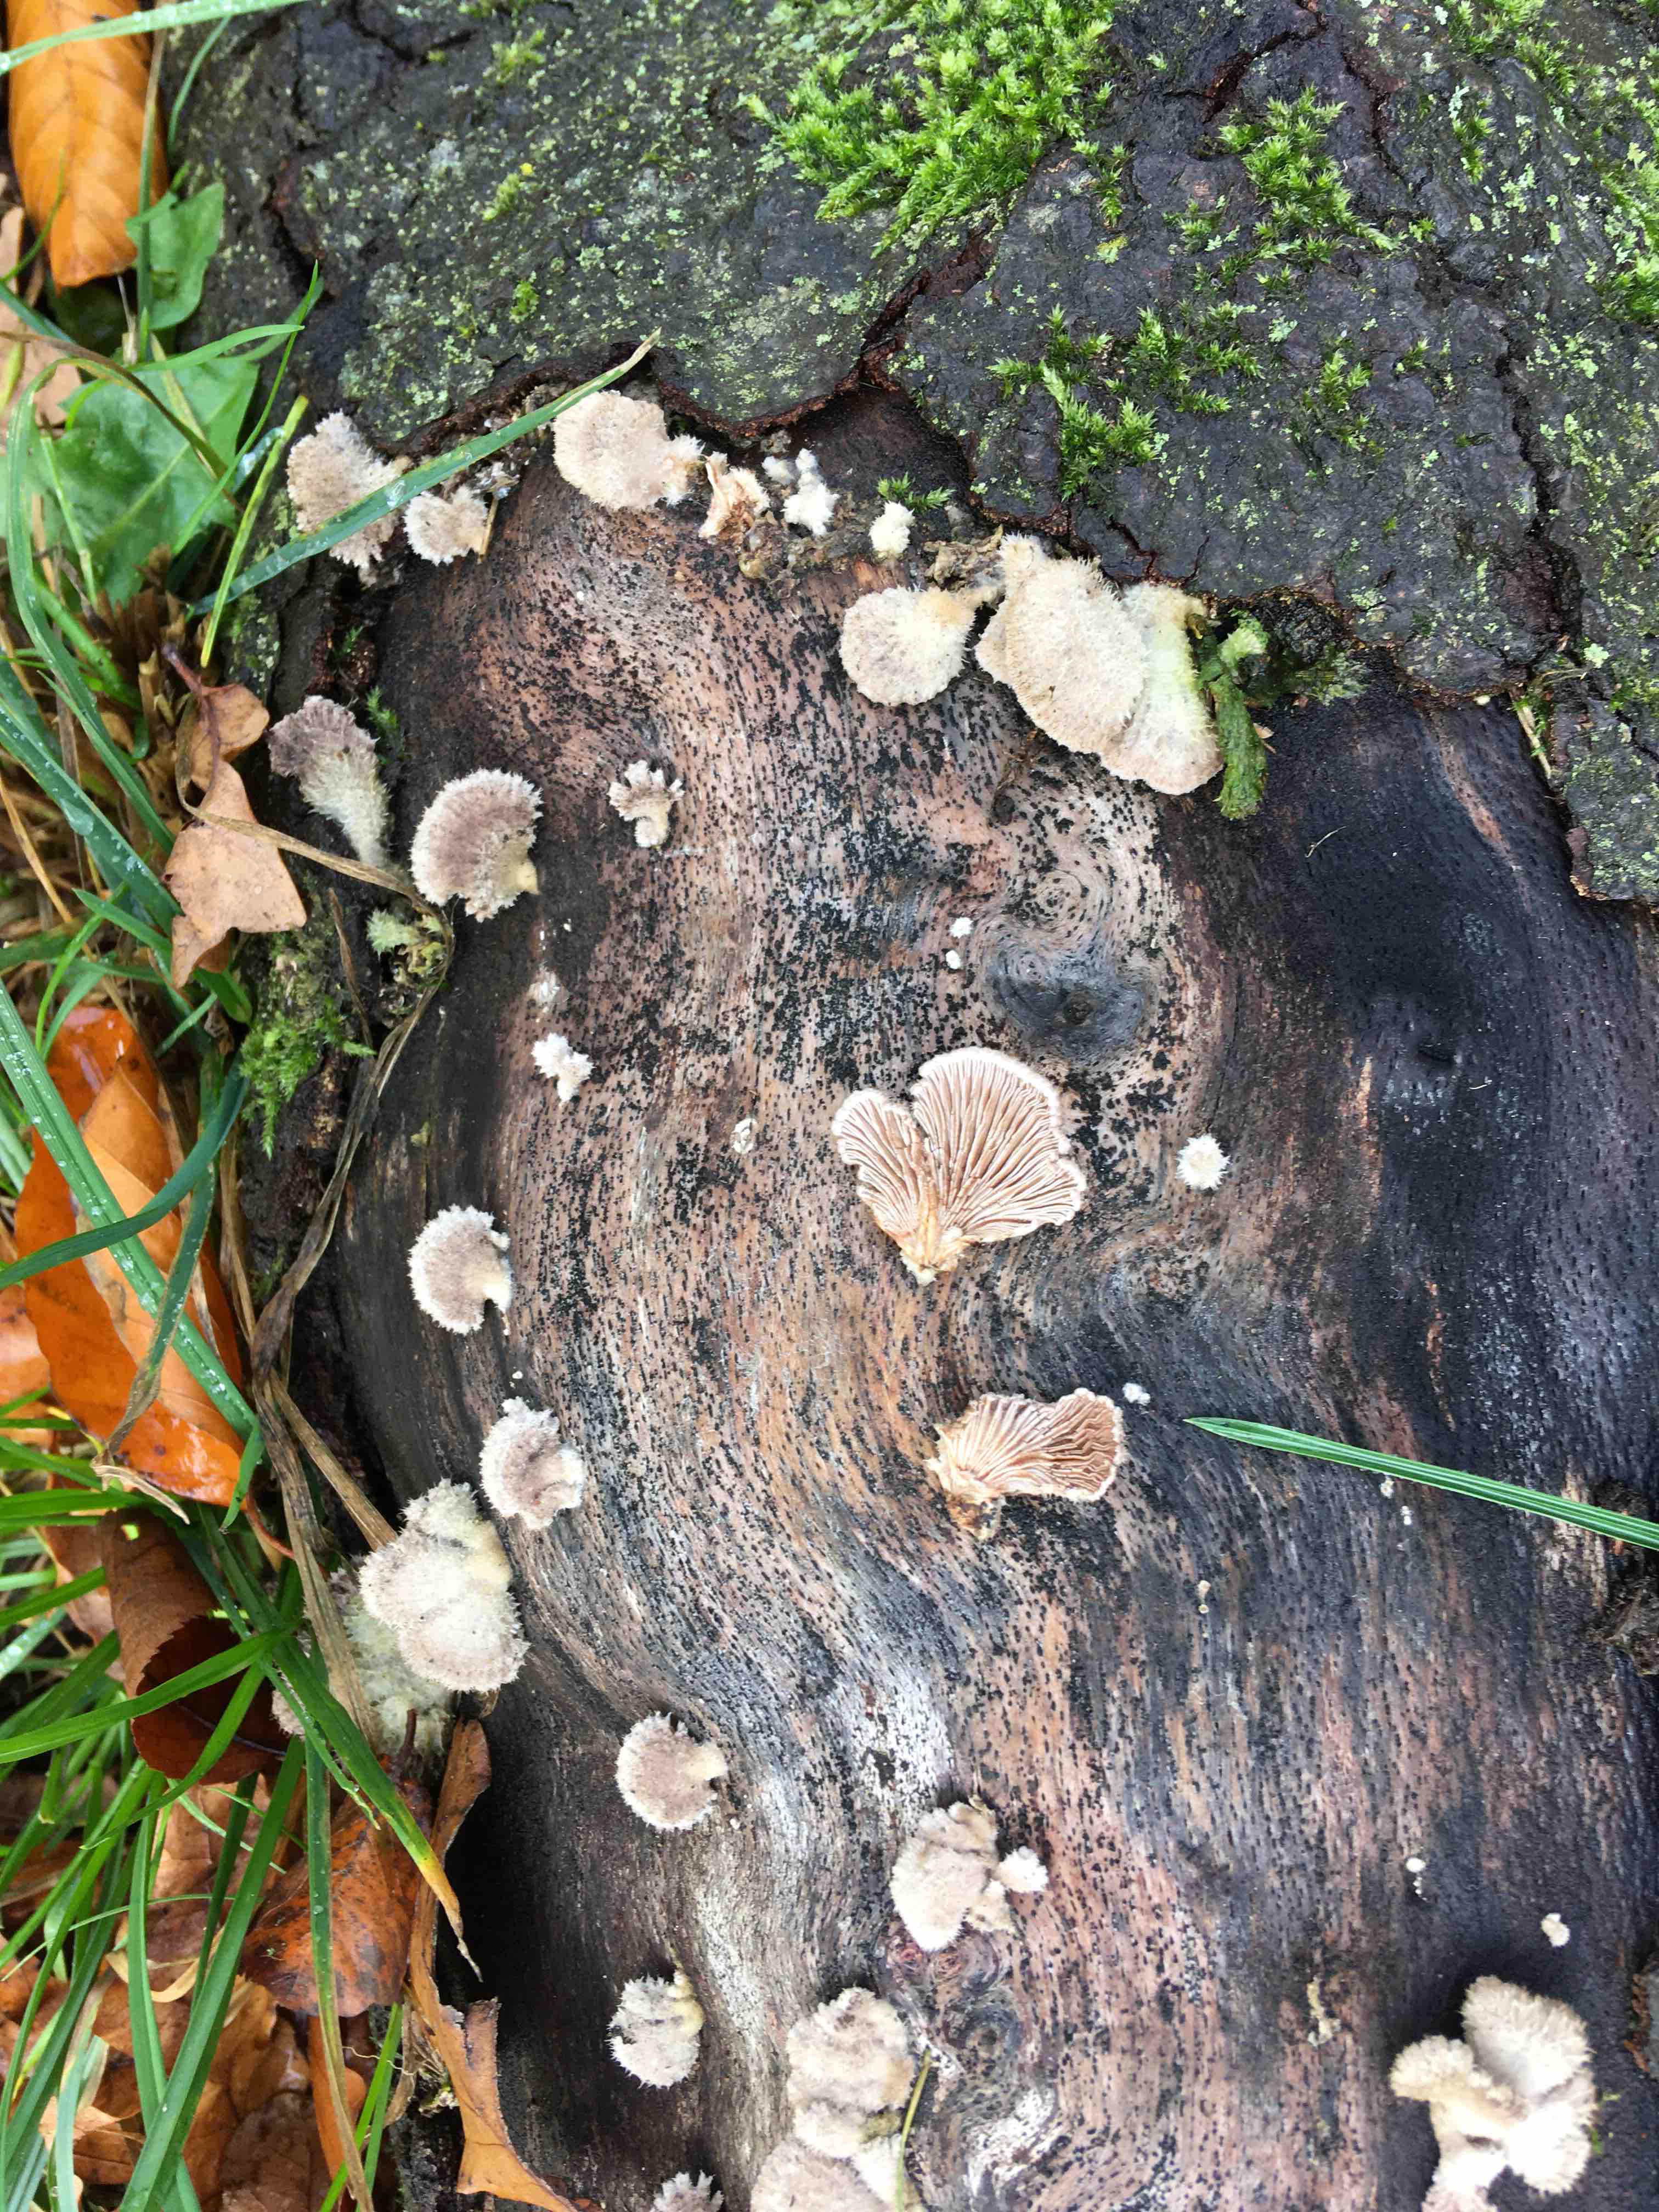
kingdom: Fungi
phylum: Basidiomycota
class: Agaricomycetes
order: Agaricales
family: Schizophyllaceae
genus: Schizophyllum
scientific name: Schizophyllum commune
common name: kløvblad
